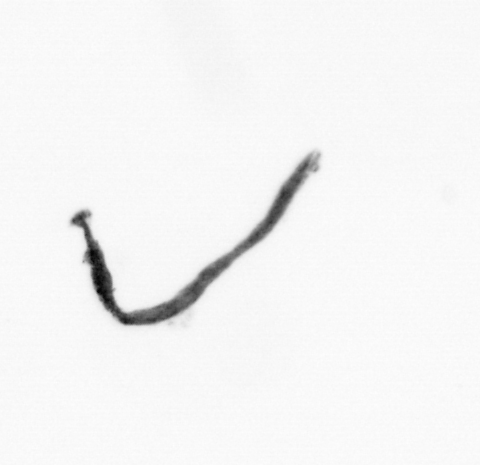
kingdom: Bacteria
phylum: Cyanobacteria
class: Cyanobacteriia
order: Cyanobacteriales
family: Microcoleaceae
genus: Trichodesmium
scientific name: Trichodesmium
